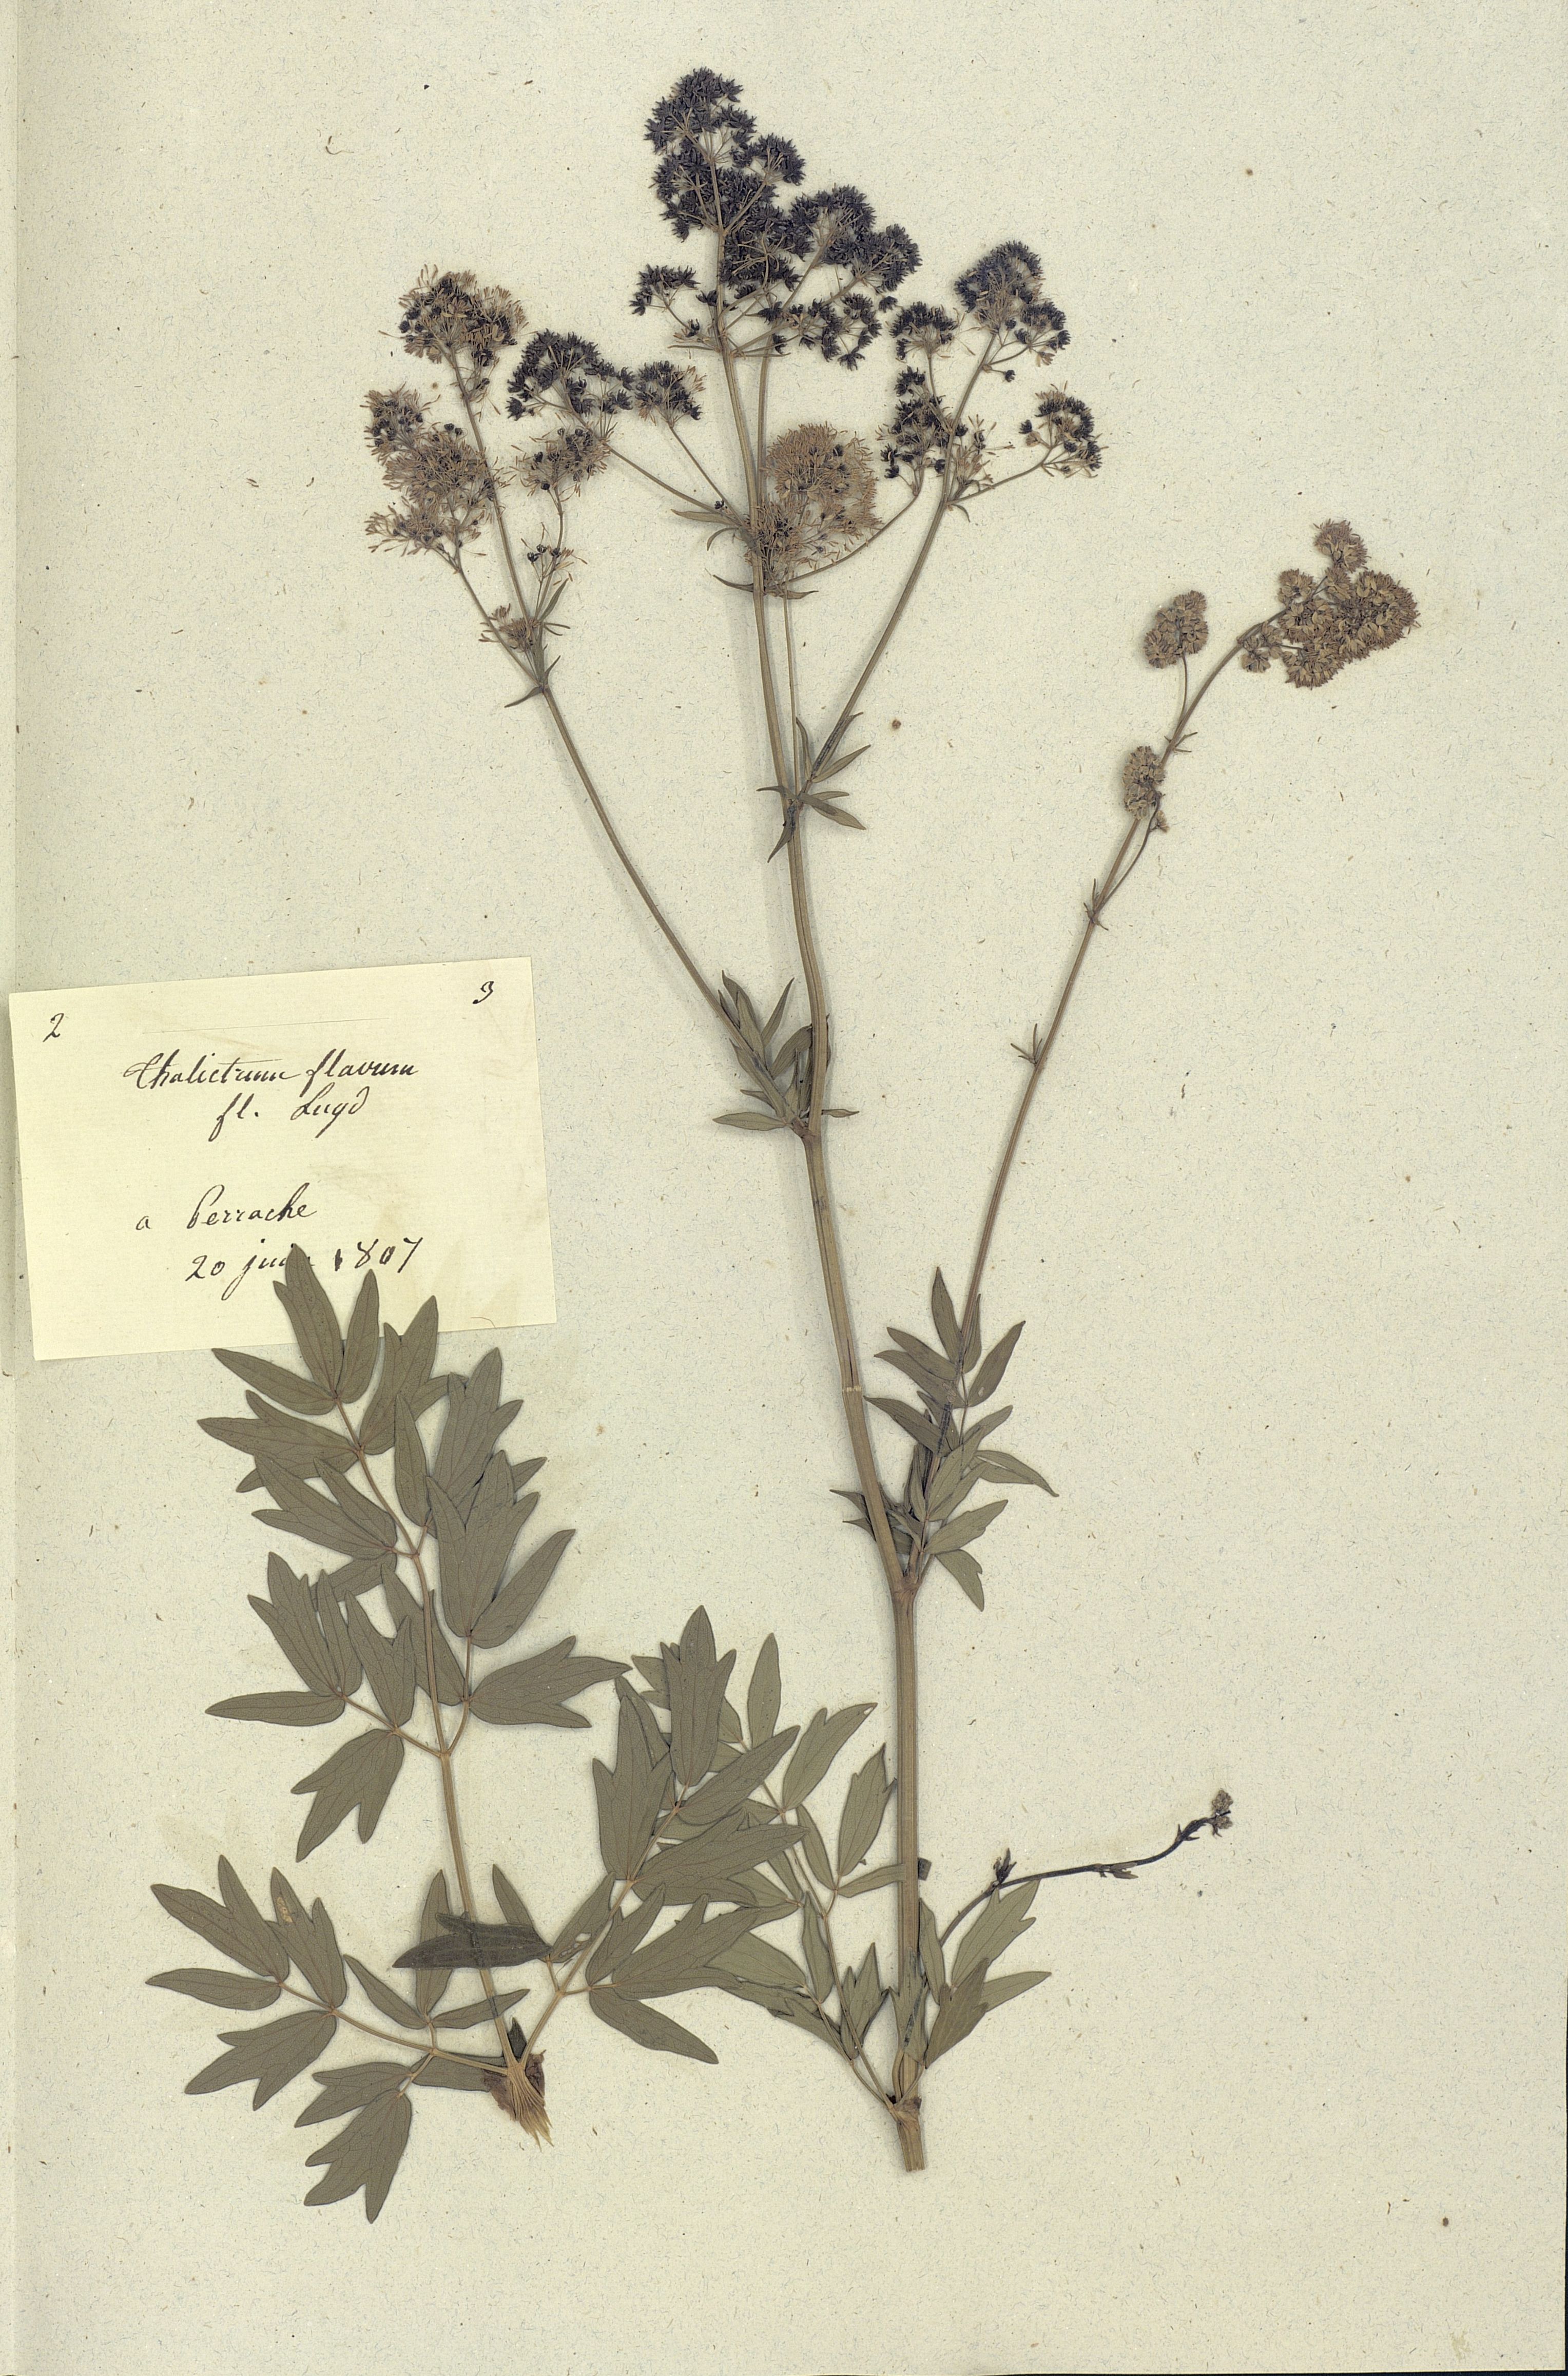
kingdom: Plantae
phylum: Tracheophyta
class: Magnoliopsida
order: Ranunculales
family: Ranunculaceae
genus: Thalictrum
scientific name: Thalictrum flavum
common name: Common meadow-rue
